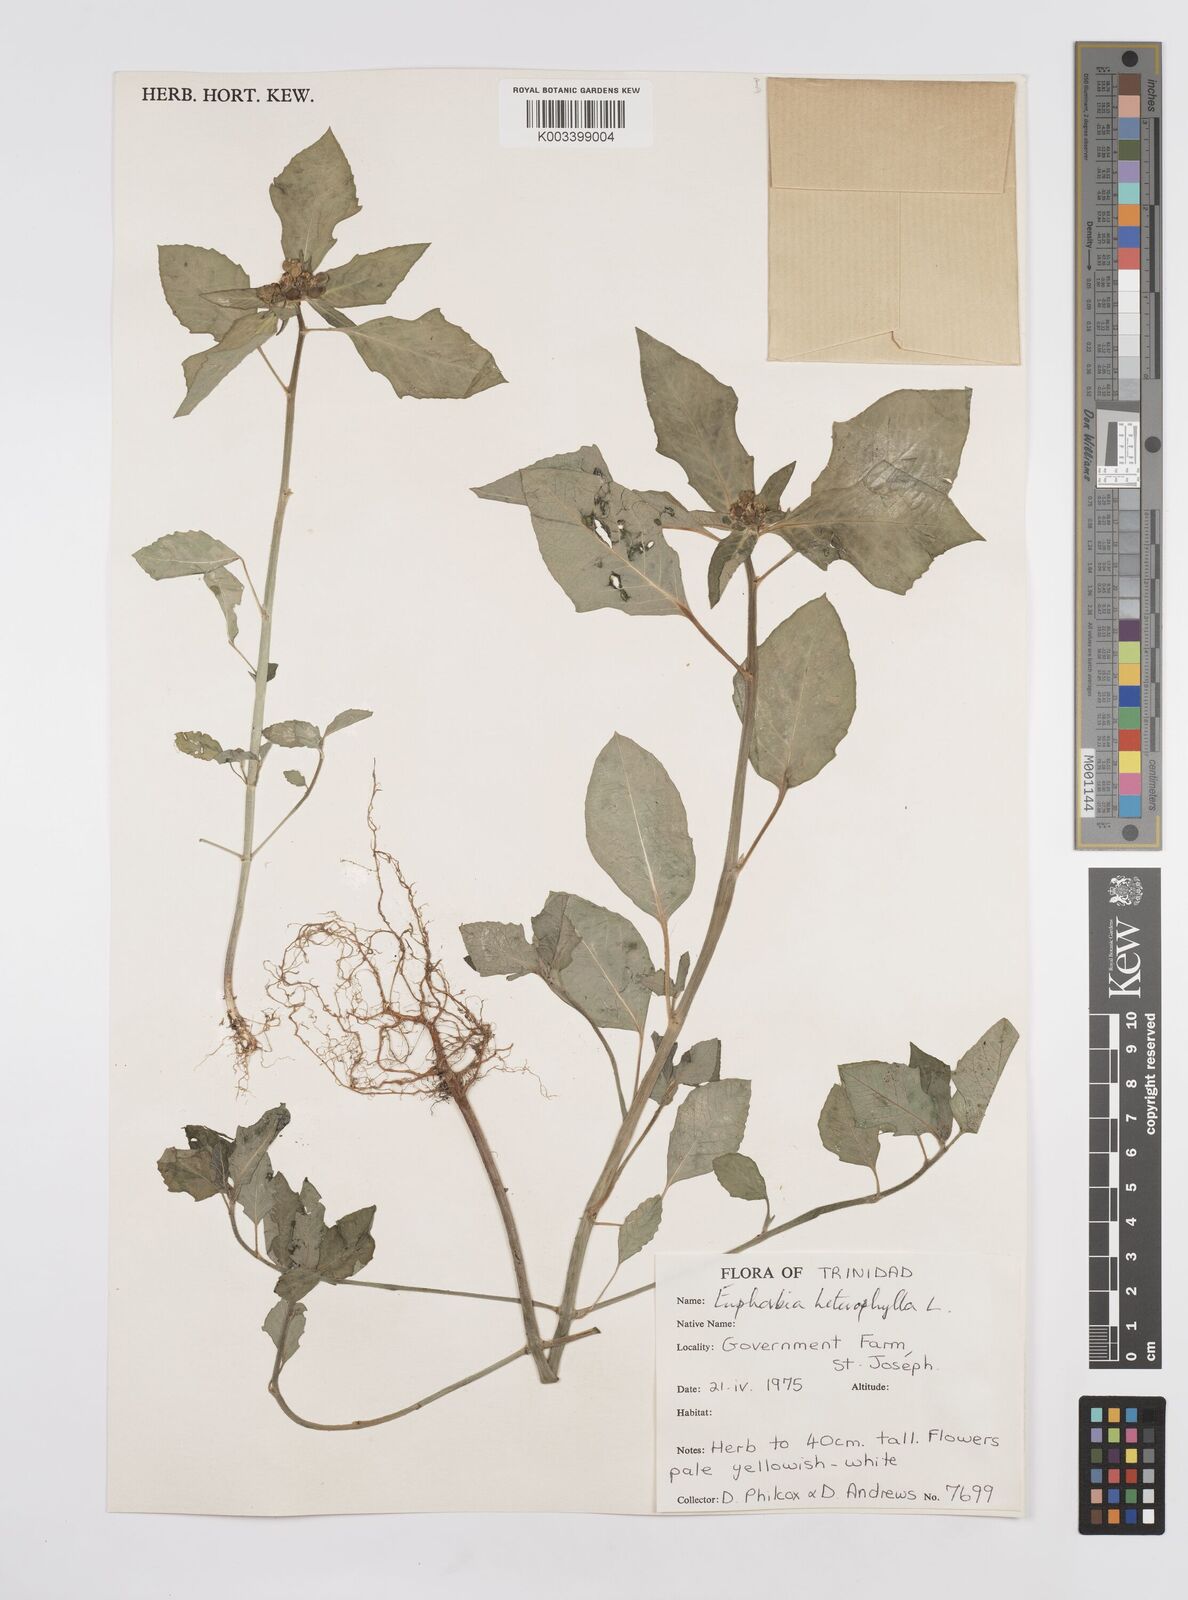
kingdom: Plantae
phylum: Tracheophyta
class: Magnoliopsida
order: Malpighiales
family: Euphorbiaceae
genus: Euphorbia
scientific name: Euphorbia heterophylla
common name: Mexican fireplant
